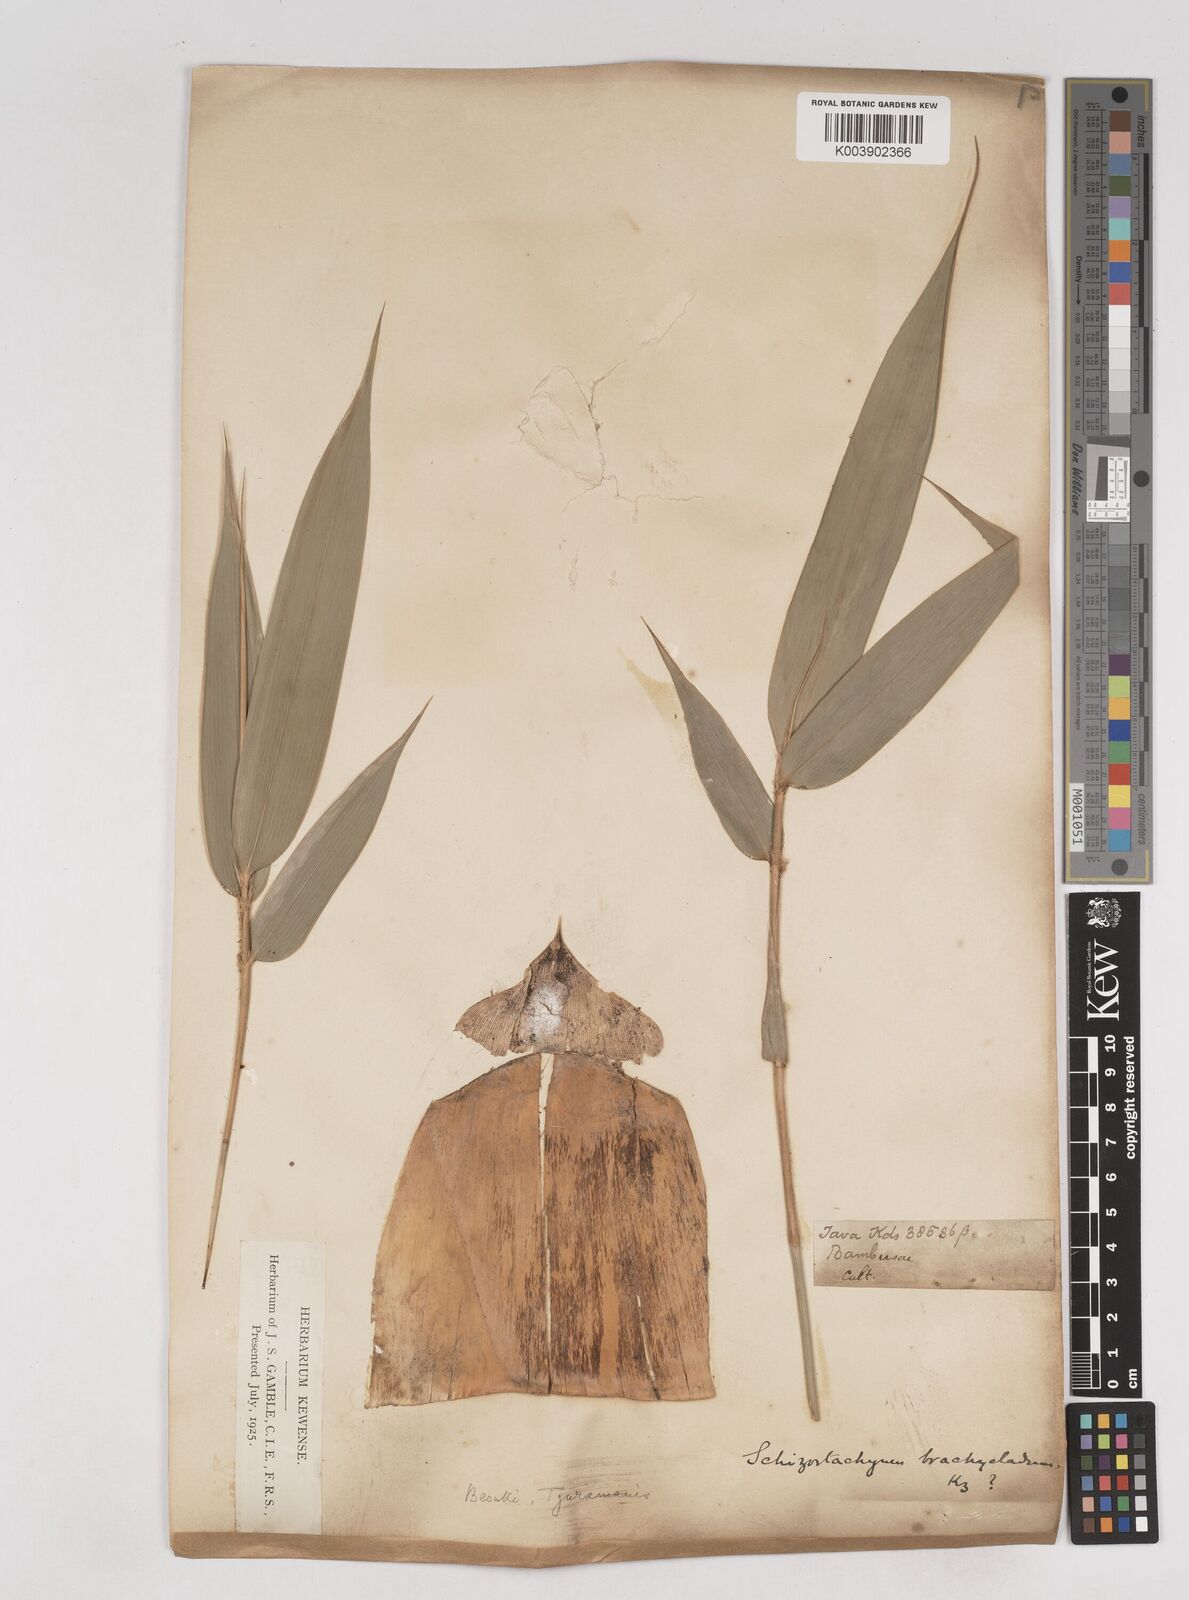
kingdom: Plantae
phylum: Tracheophyta
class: Liliopsida
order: Poales
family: Poaceae
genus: Schizostachyum
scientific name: Schizostachyum zollingeri
